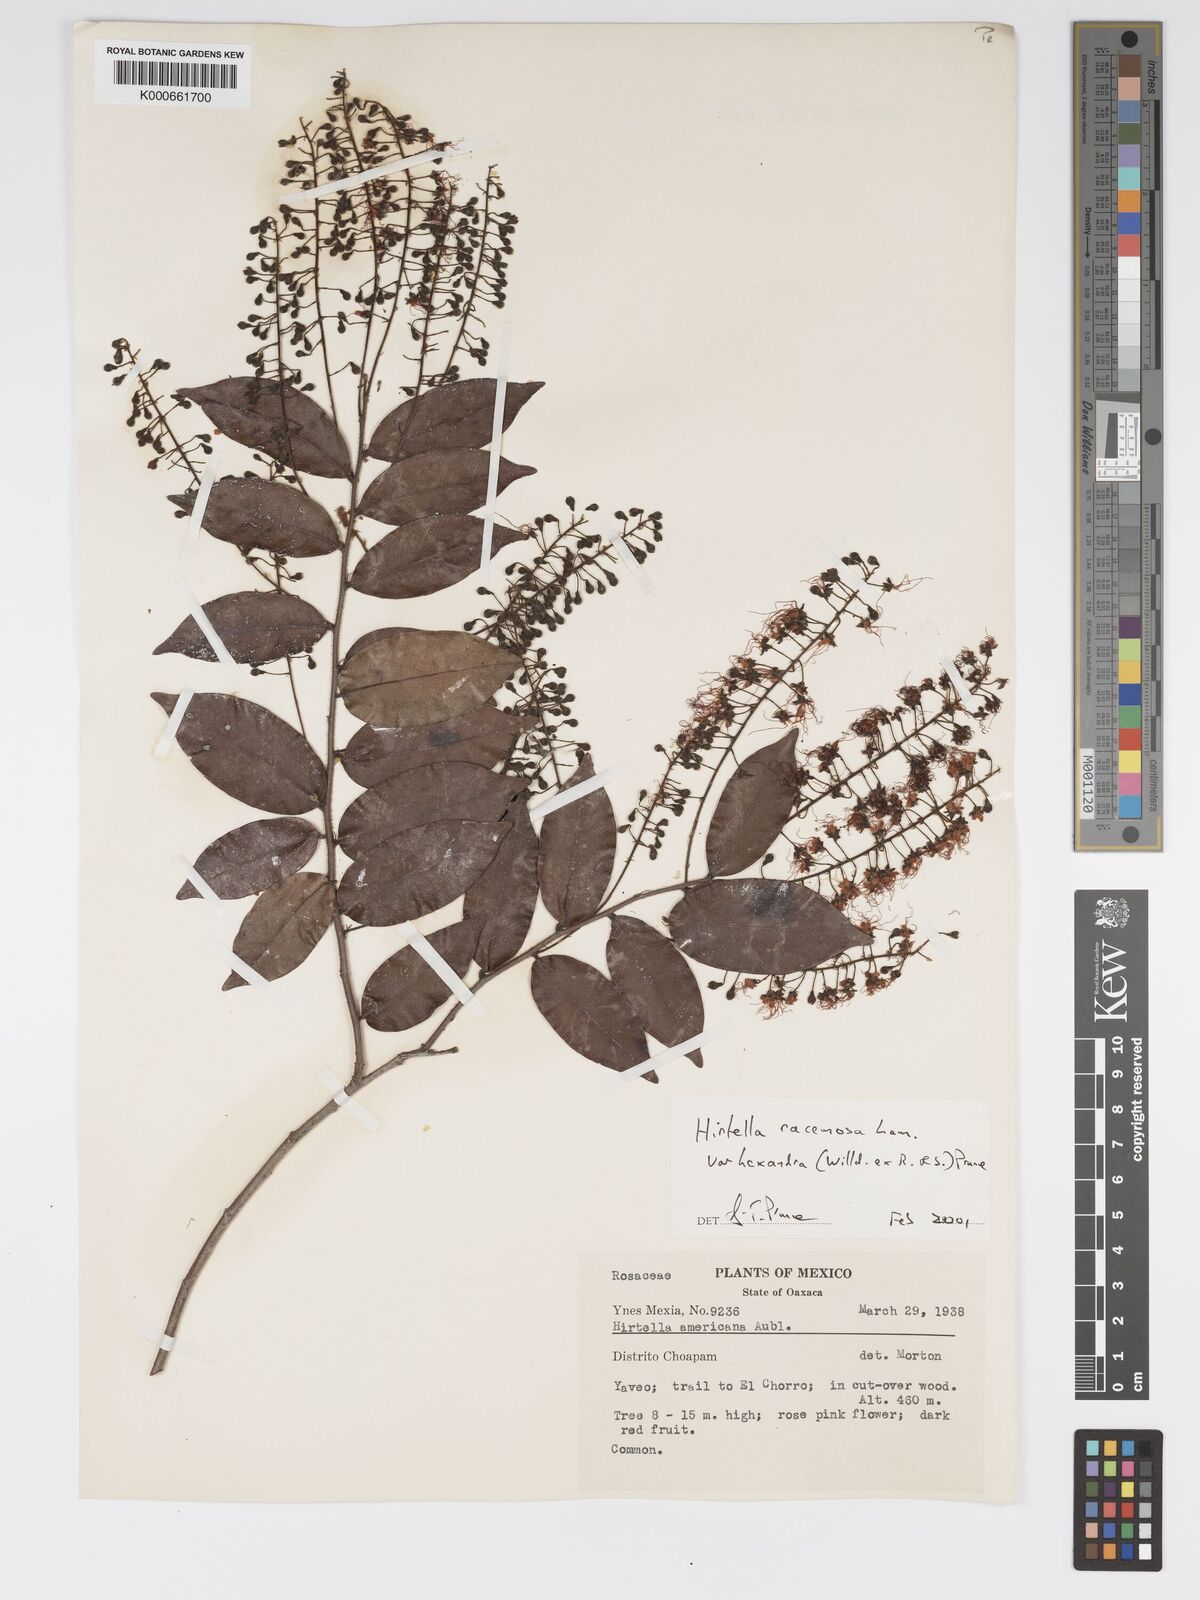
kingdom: Plantae
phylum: Tracheophyta
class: Magnoliopsida
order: Malpighiales
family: Chrysobalanaceae
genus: Hirtella
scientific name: Hirtella racemosa
